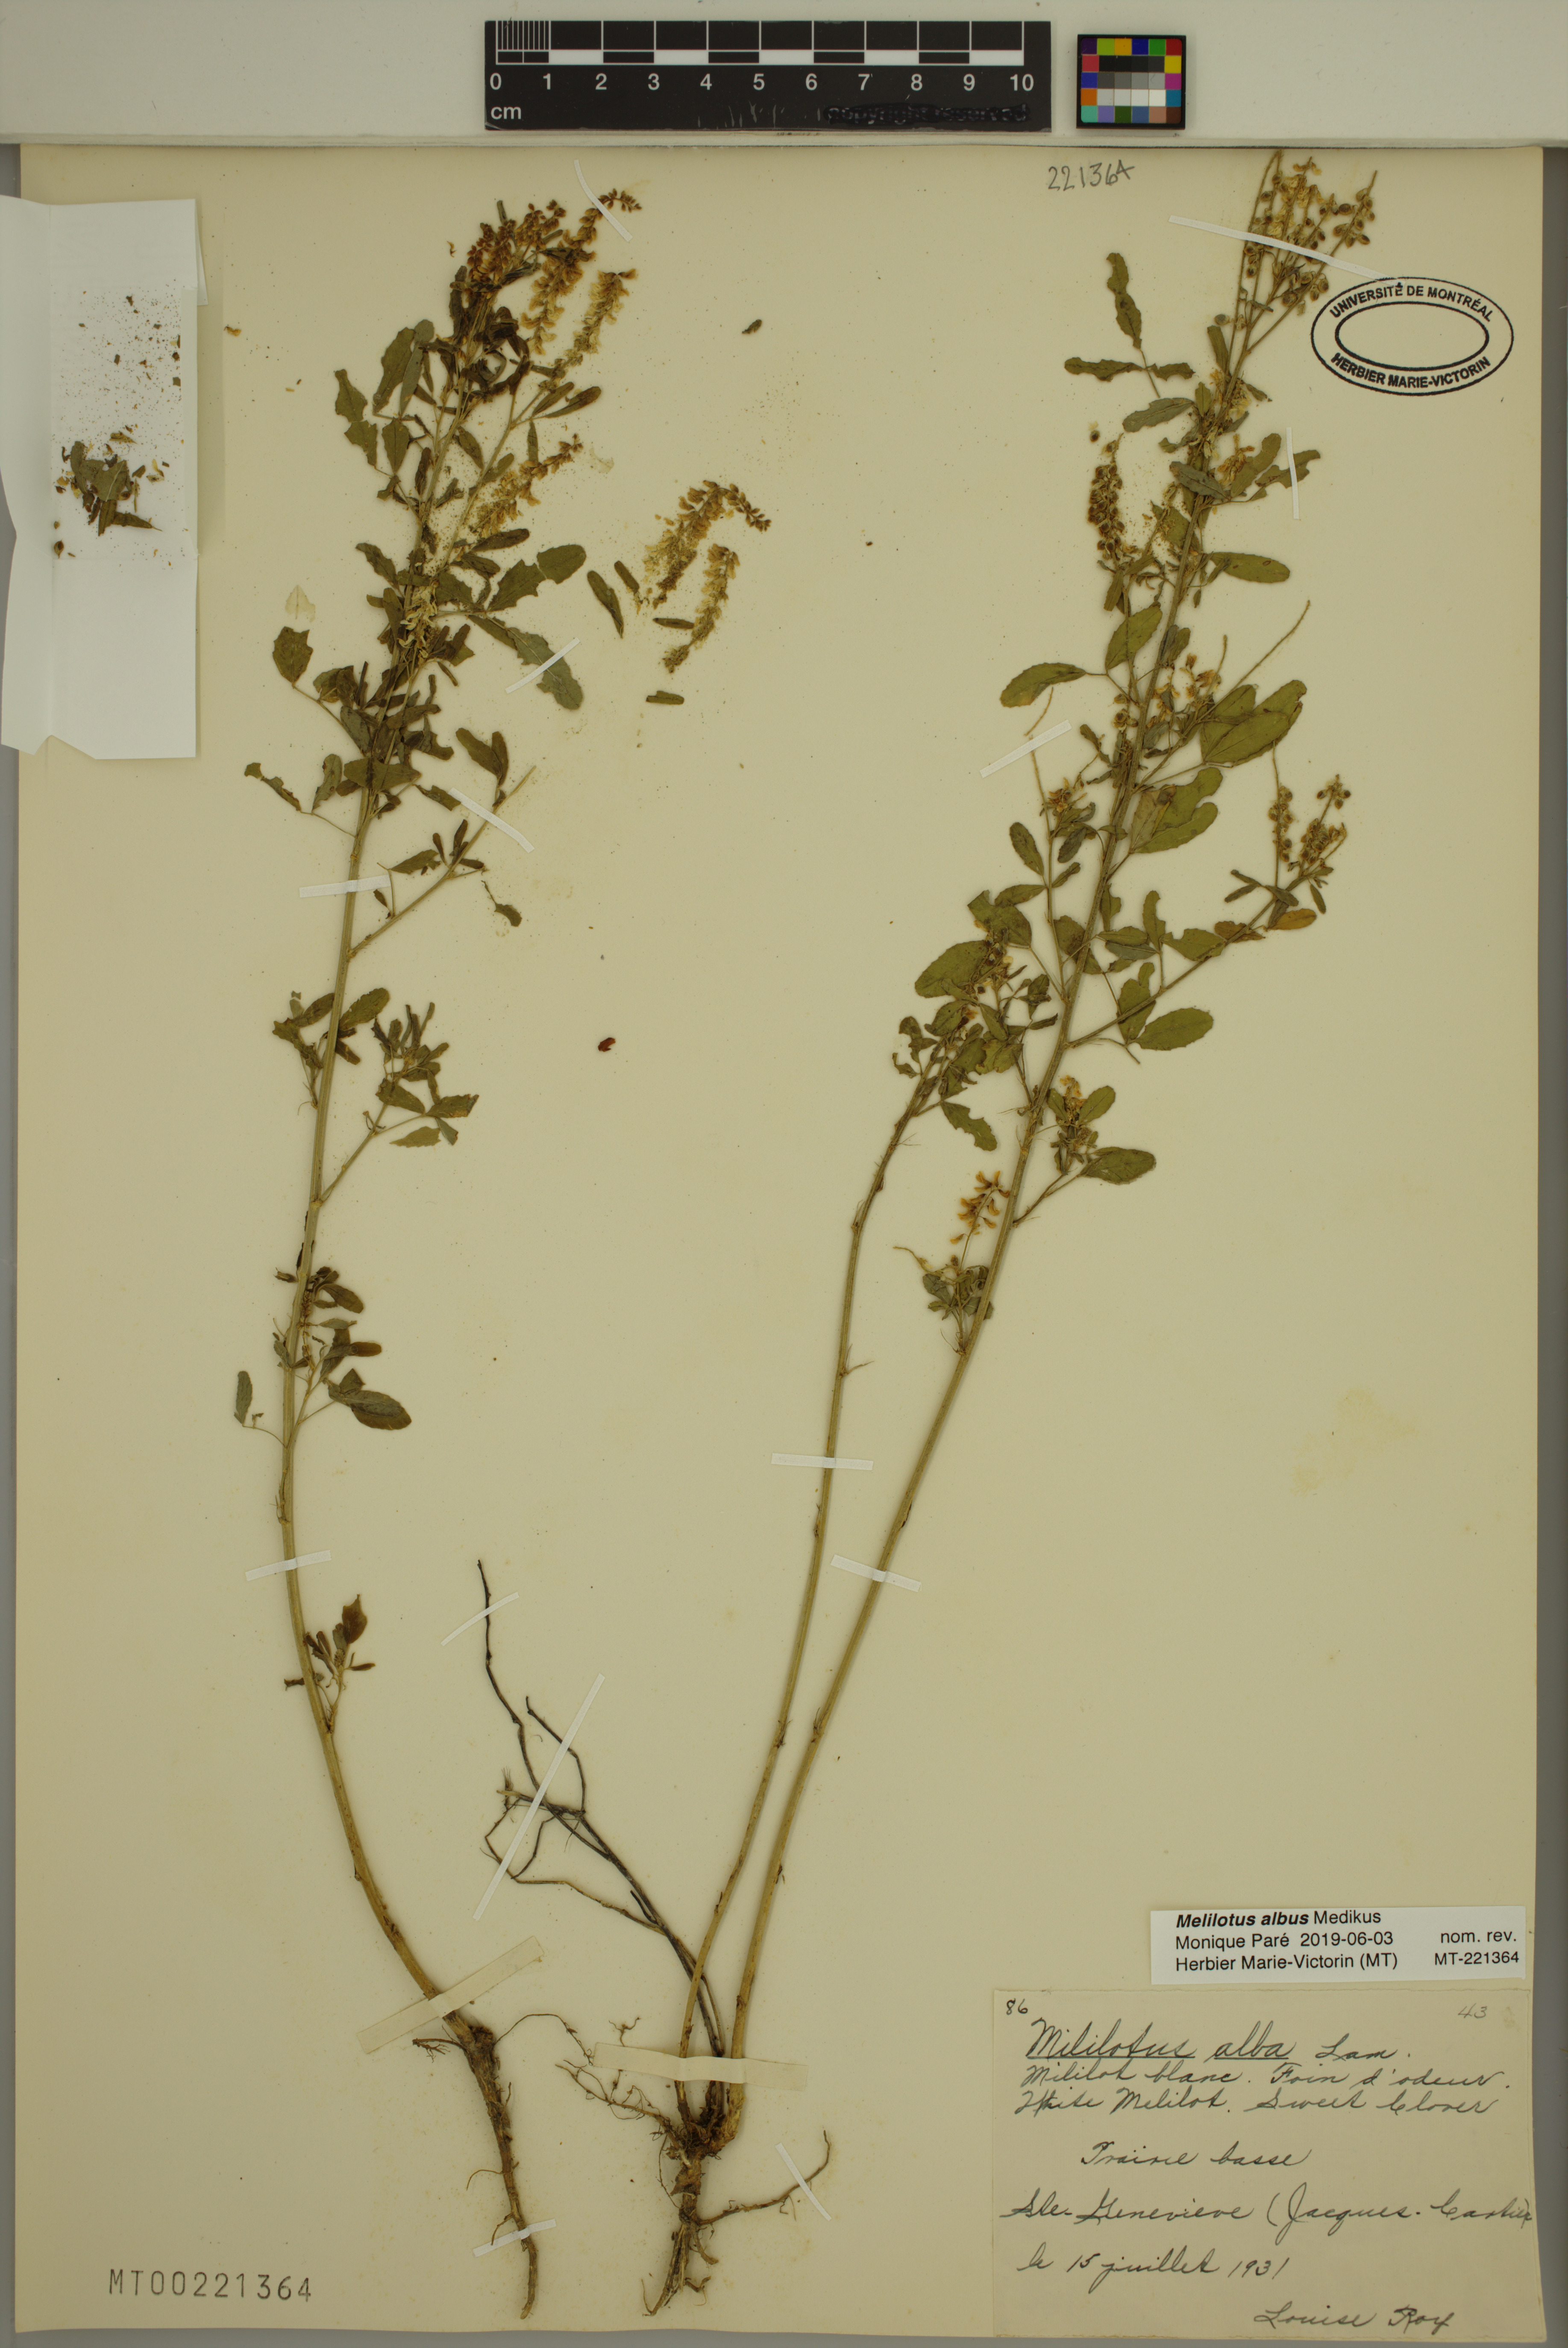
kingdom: Plantae
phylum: Tracheophyta
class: Magnoliopsida
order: Fabales
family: Fabaceae
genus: Melilotus
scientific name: Melilotus albus
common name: White melilot
